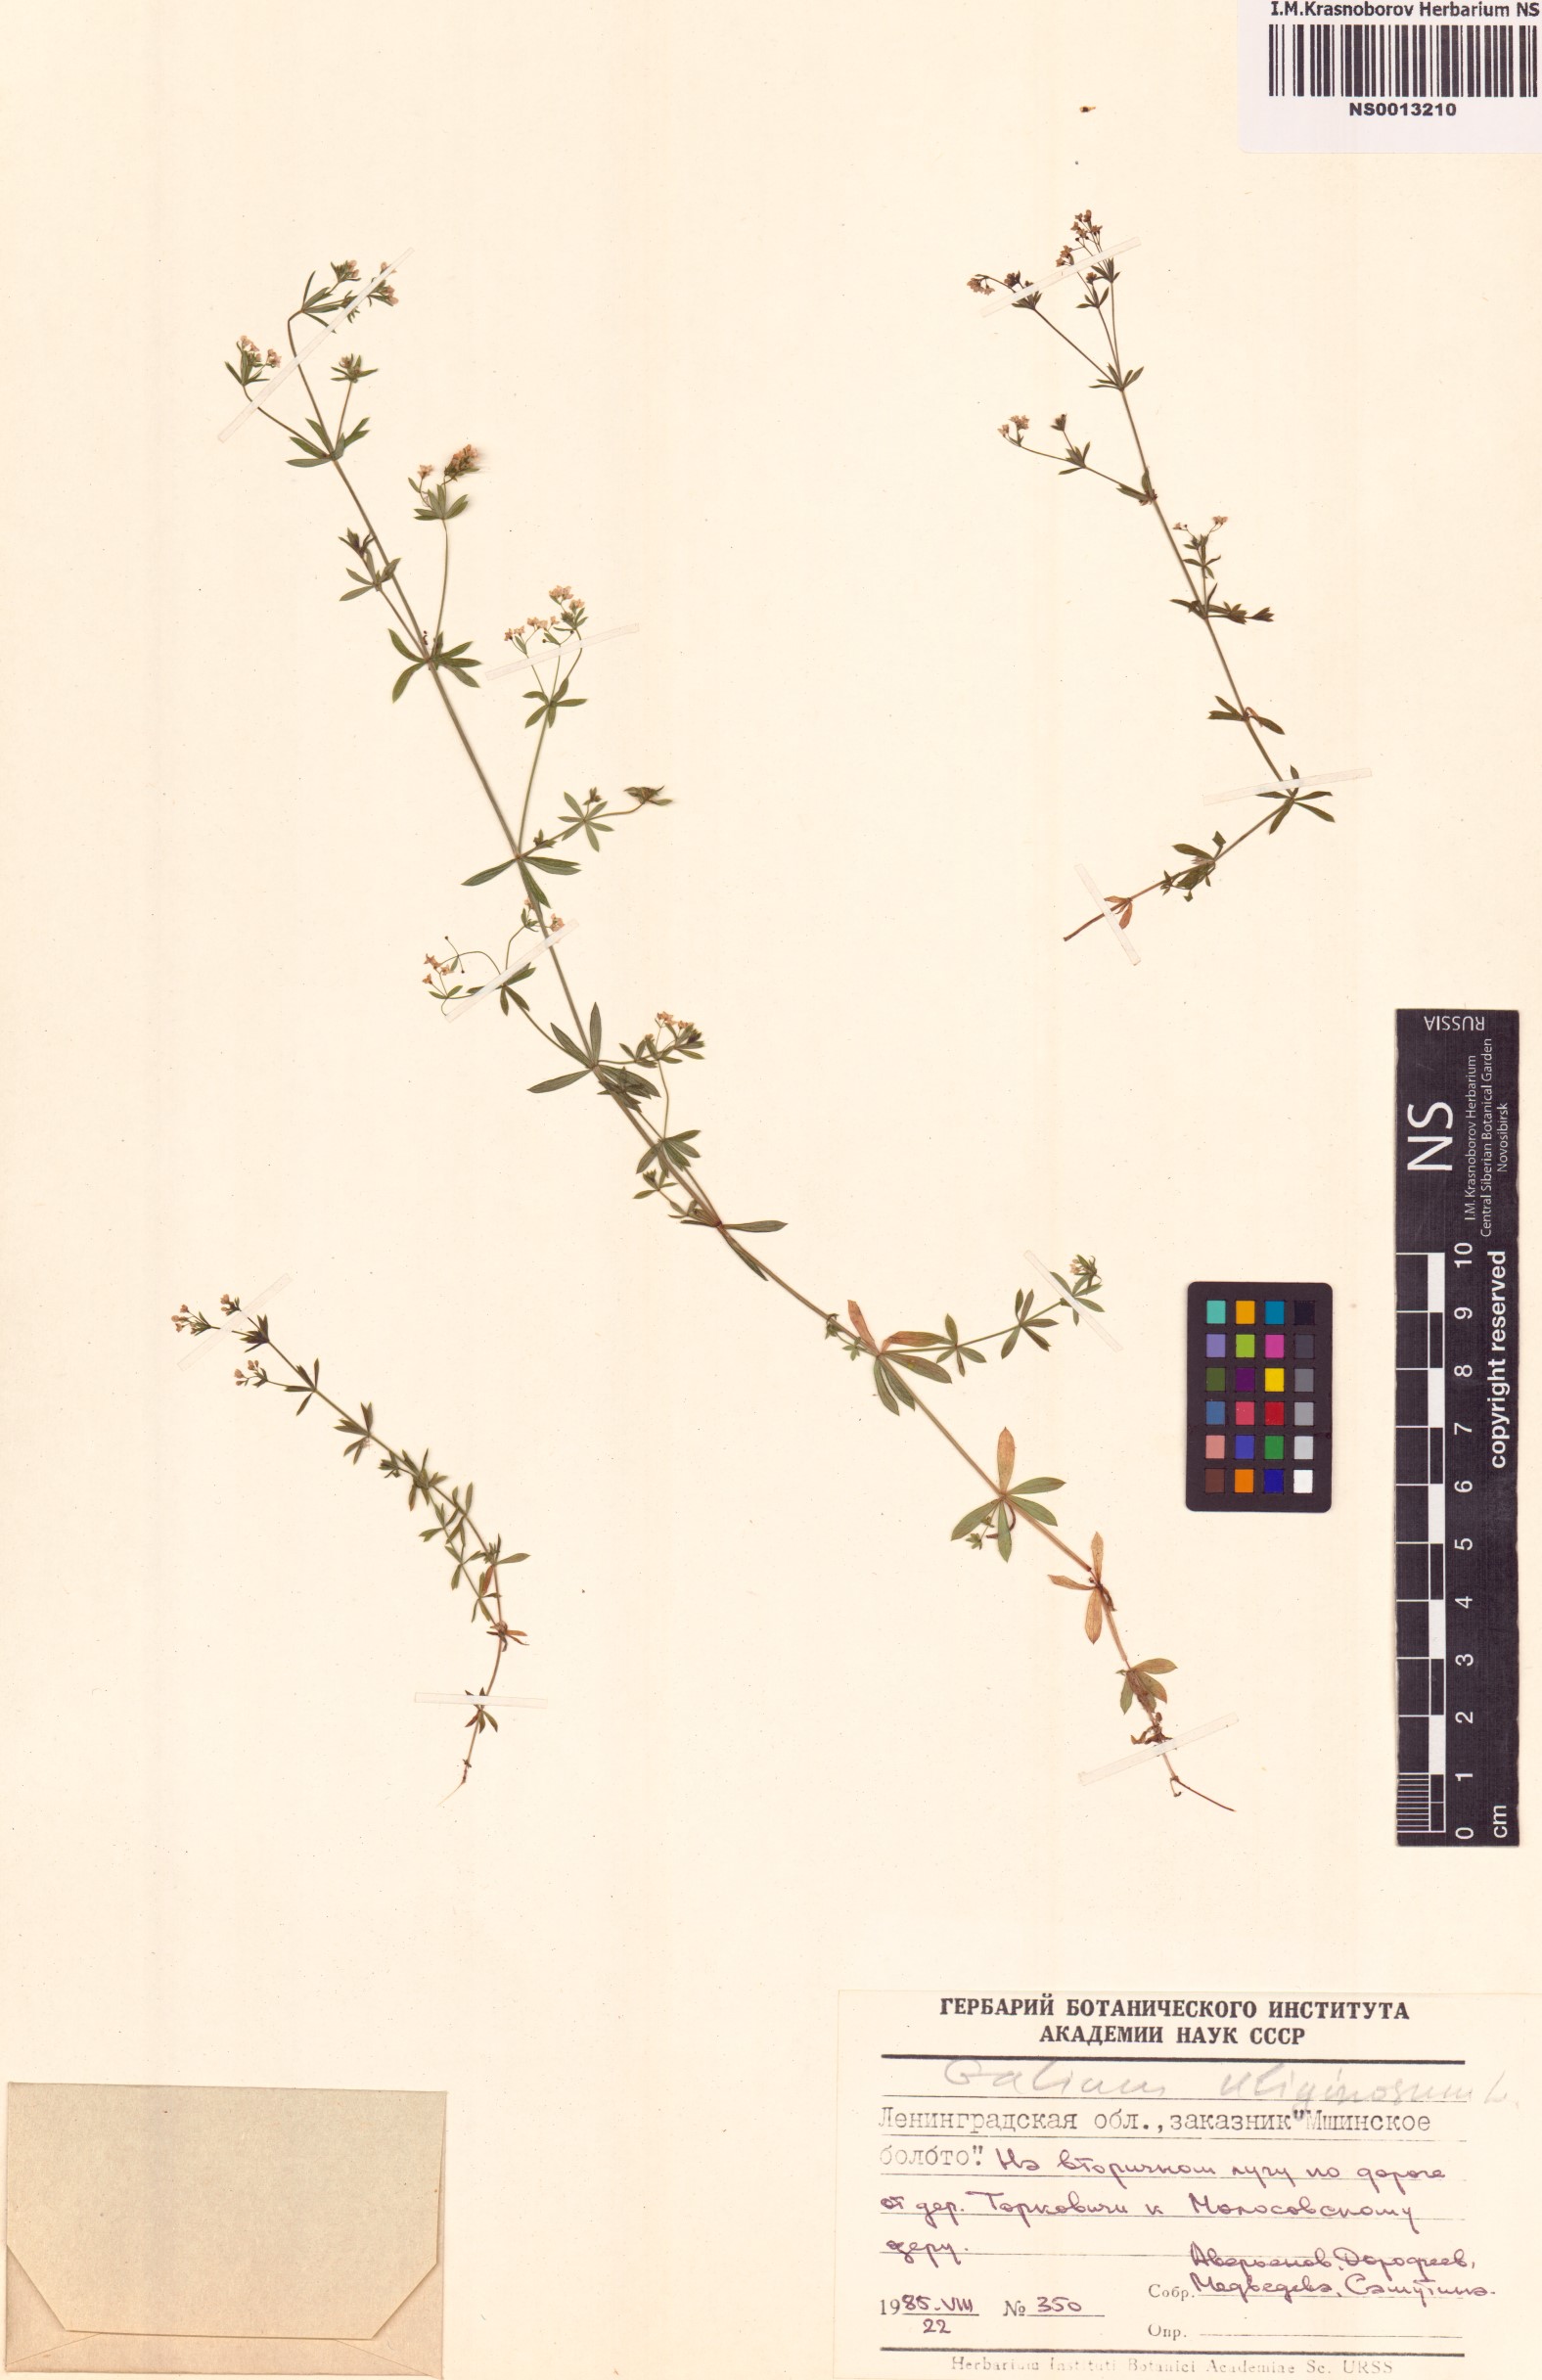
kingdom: Plantae
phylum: Tracheophyta
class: Magnoliopsida
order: Gentianales
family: Rubiaceae
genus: Galium
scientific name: Galium uliginosum
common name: Fen bedstraw
